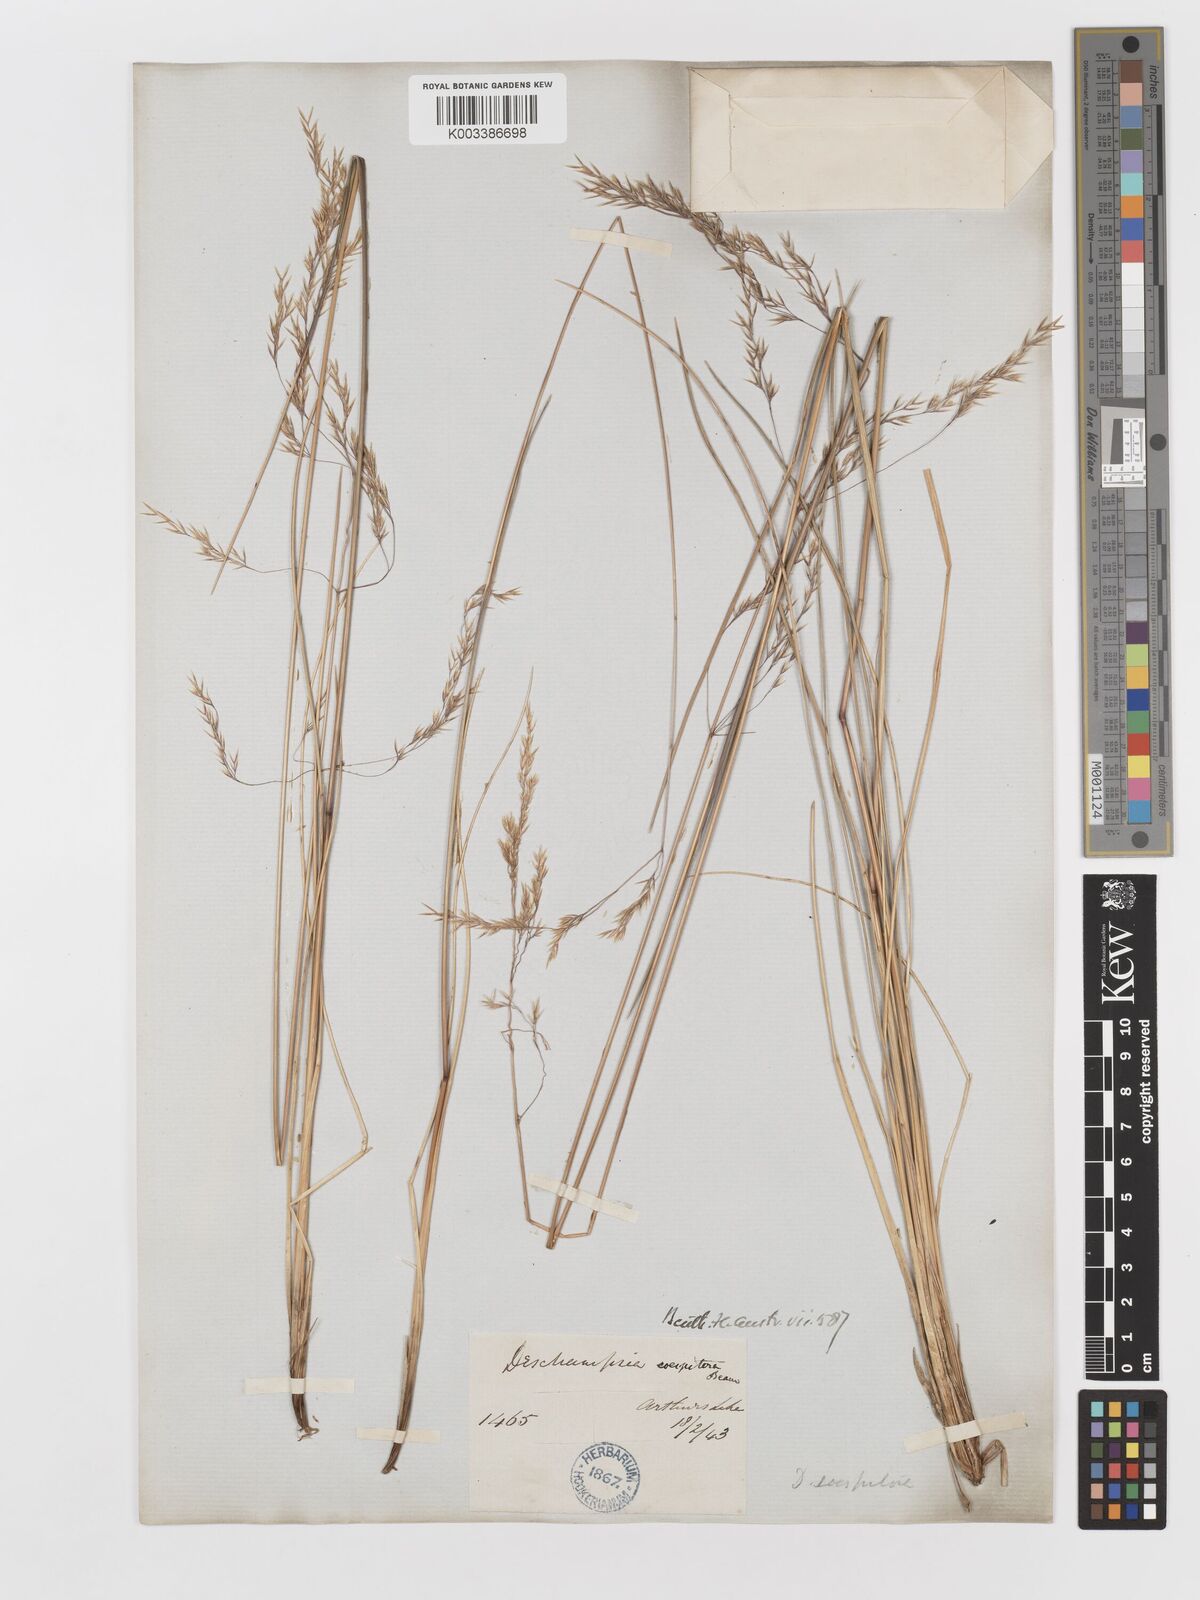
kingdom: Plantae
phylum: Tracheophyta
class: Liliopsida
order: Poales
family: Poaceae
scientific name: Poaceae
